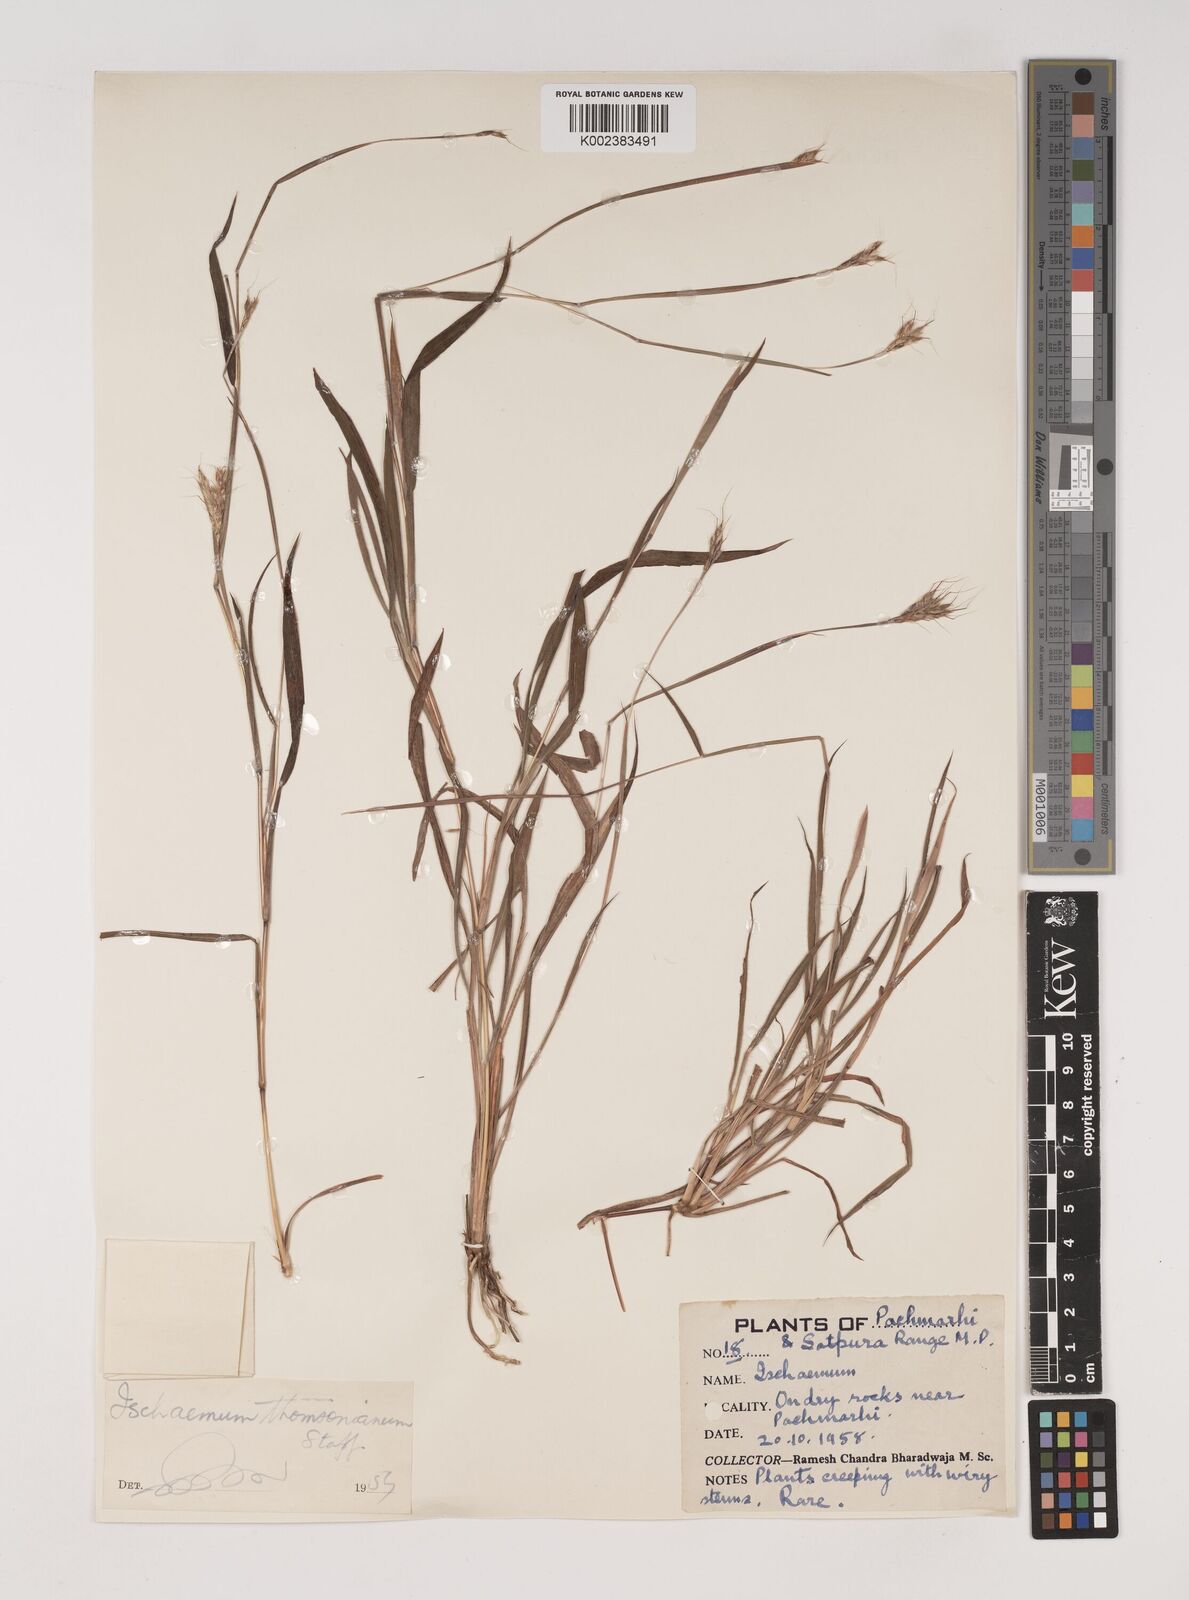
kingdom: Plantae
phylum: Tracheophyta
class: Liliopsida
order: Poales
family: Poaceae
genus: Ischaemum
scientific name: Ischaemum thomsonianum
